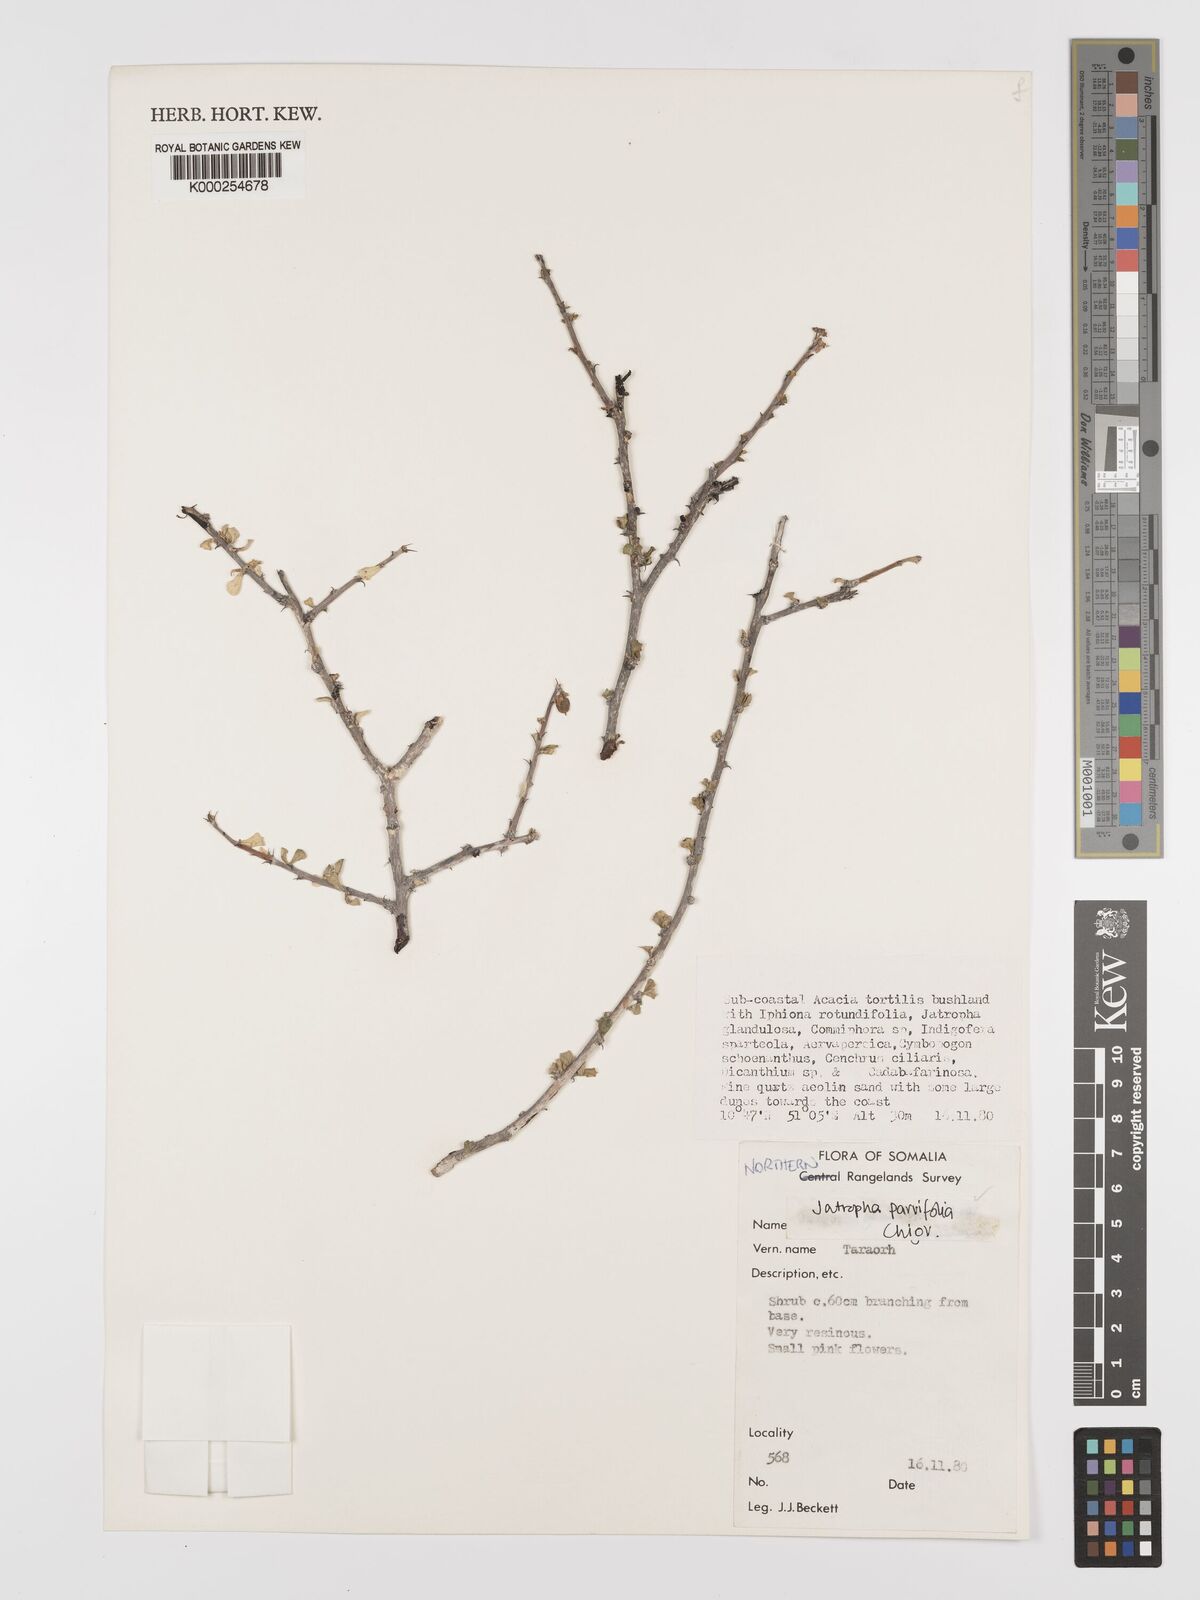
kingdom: Plantae
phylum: Tracheophyta
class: Magnoliopsida
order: Malpighiales
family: Euphorbiaceae
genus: Jatropha
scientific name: Jatropha rivae
